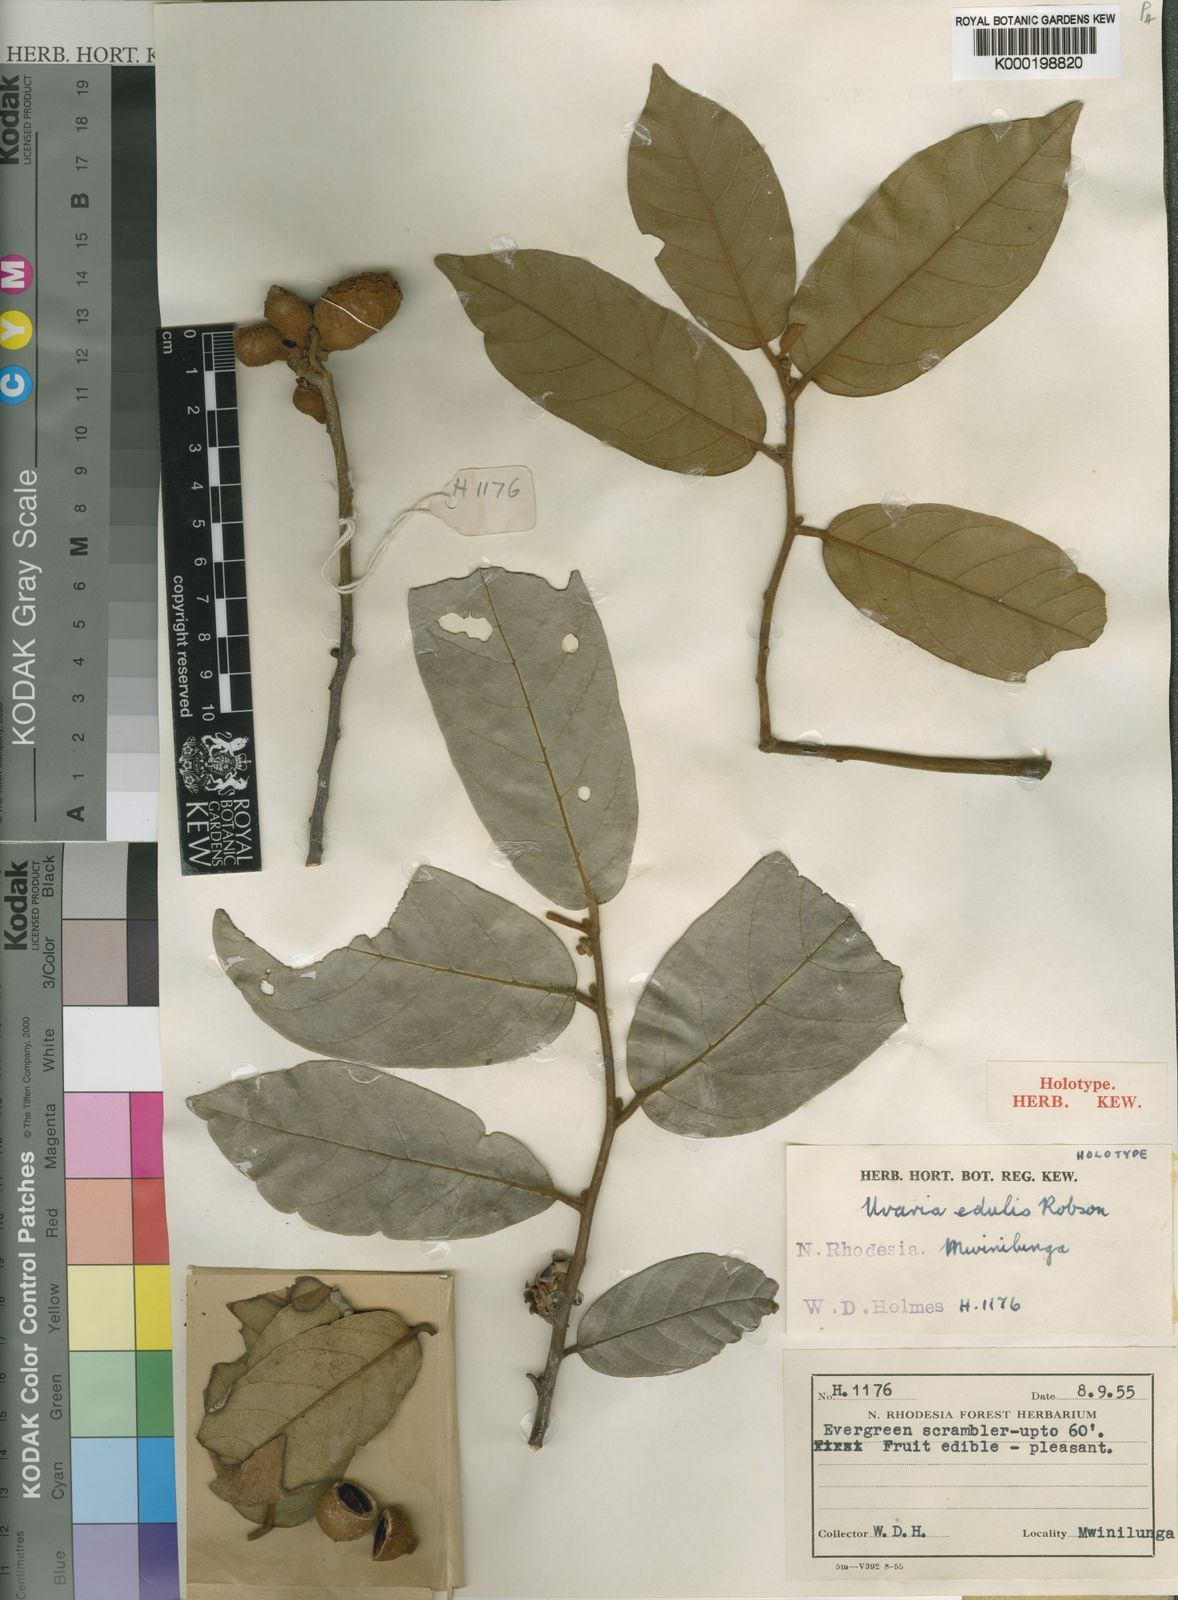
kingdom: Plantae
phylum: Tracheophyta
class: Magnoliopsida
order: Magnoliales
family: Annonaceae
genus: Uvaria
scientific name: Uvaria edulis
